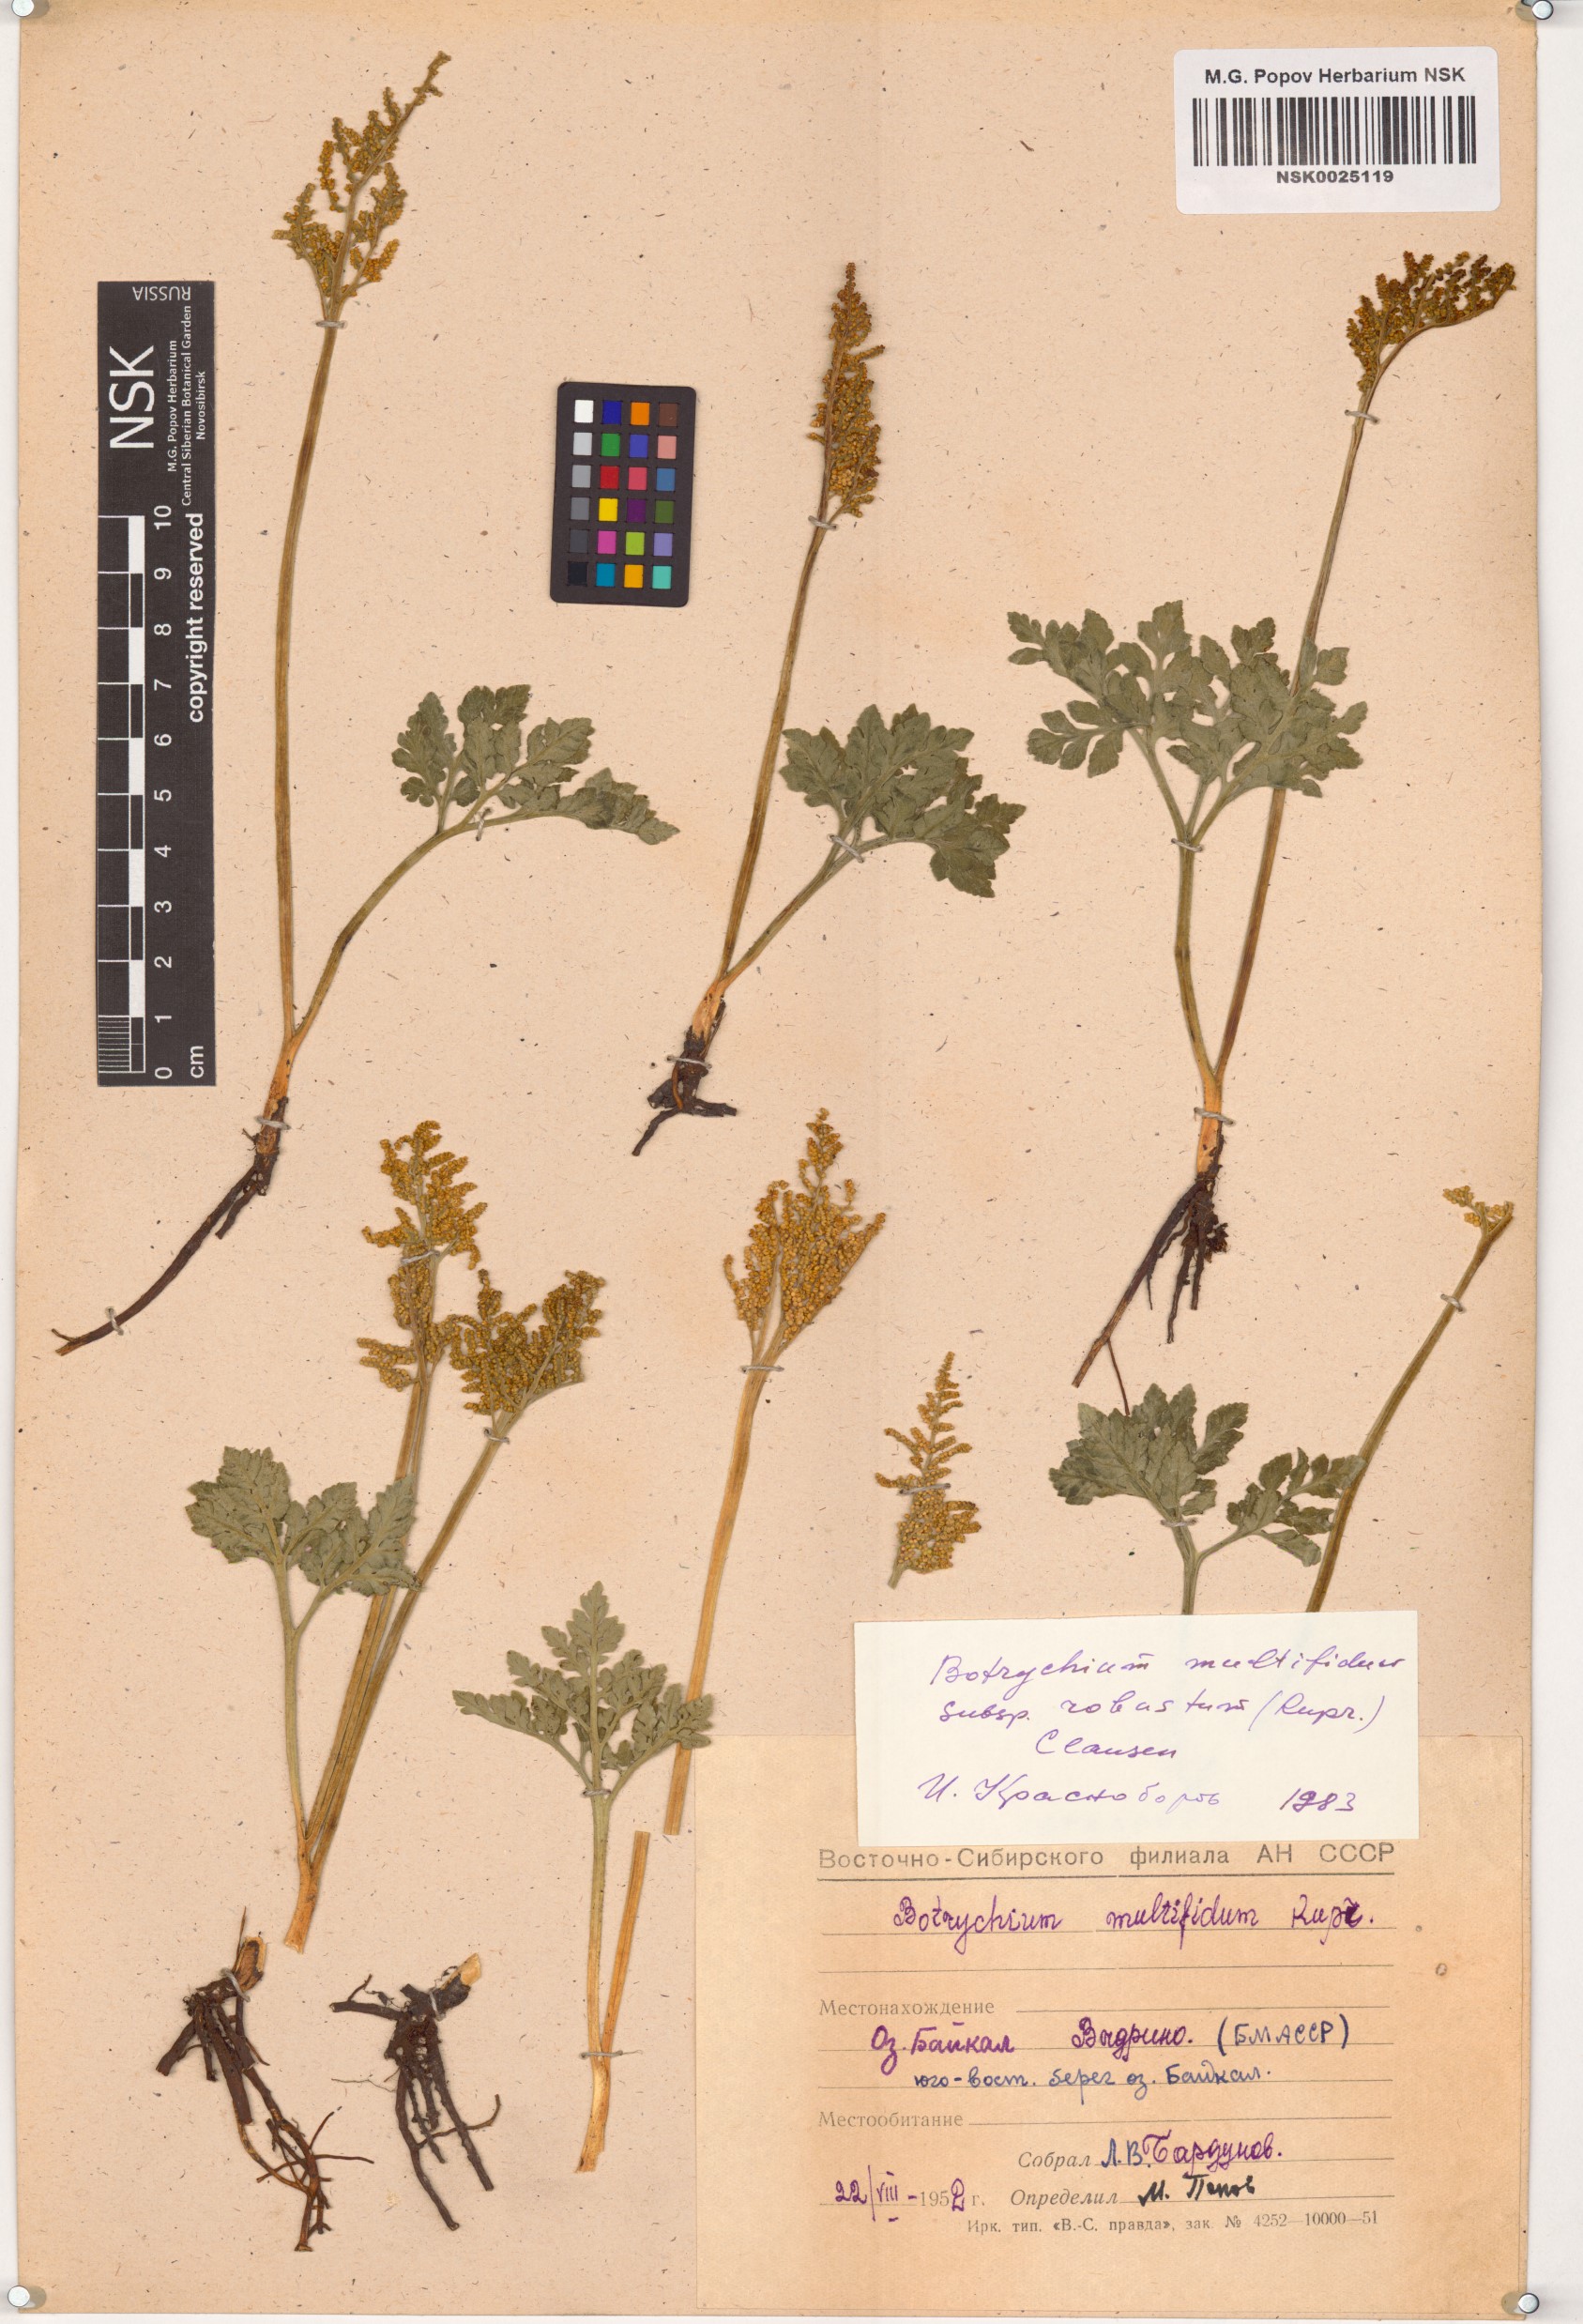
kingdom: Plantae
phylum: Tracheophyta
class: Polypodiopsida
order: Ophioglossales
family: Ophioglossaceae
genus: Sceptridium
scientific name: Sceptridium multifidum
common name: Leathery grape fern
